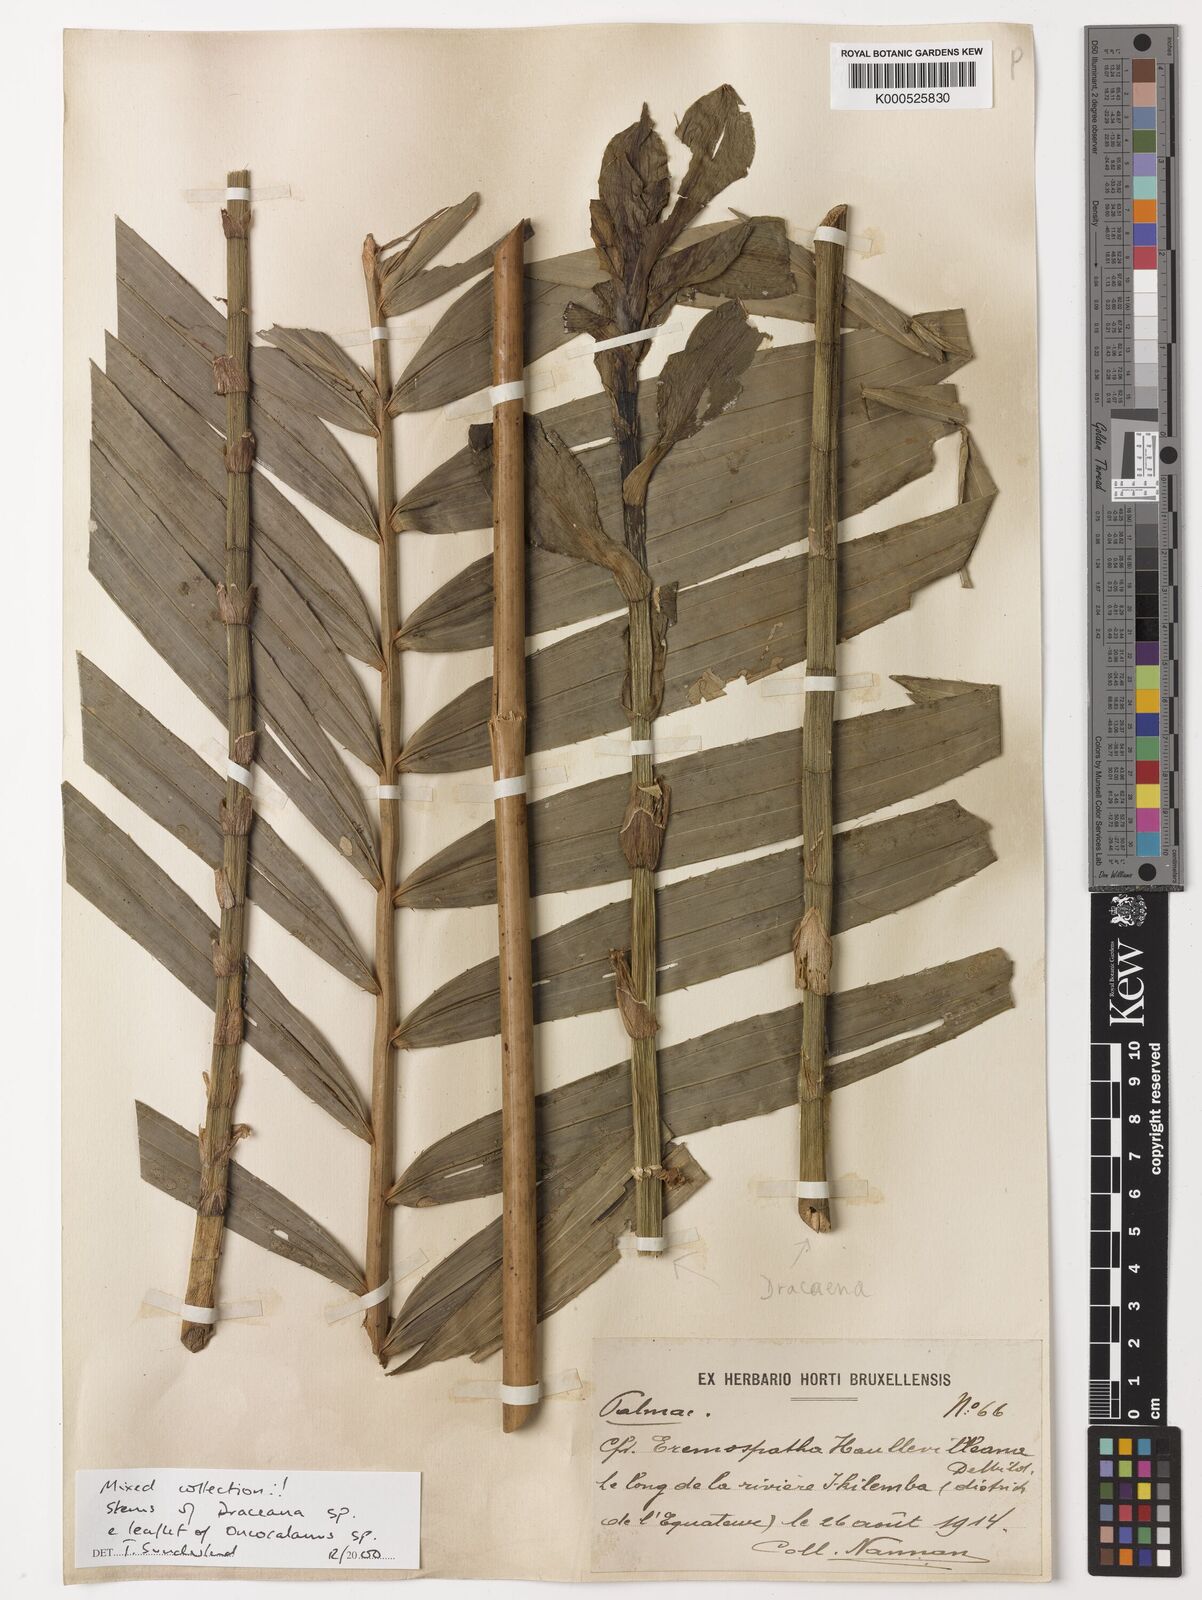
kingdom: Plantae
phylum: Tracheophyta
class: Liliopsida
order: Arecales
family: Arecaceae
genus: Oncocalamus
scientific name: Oncocalamus
